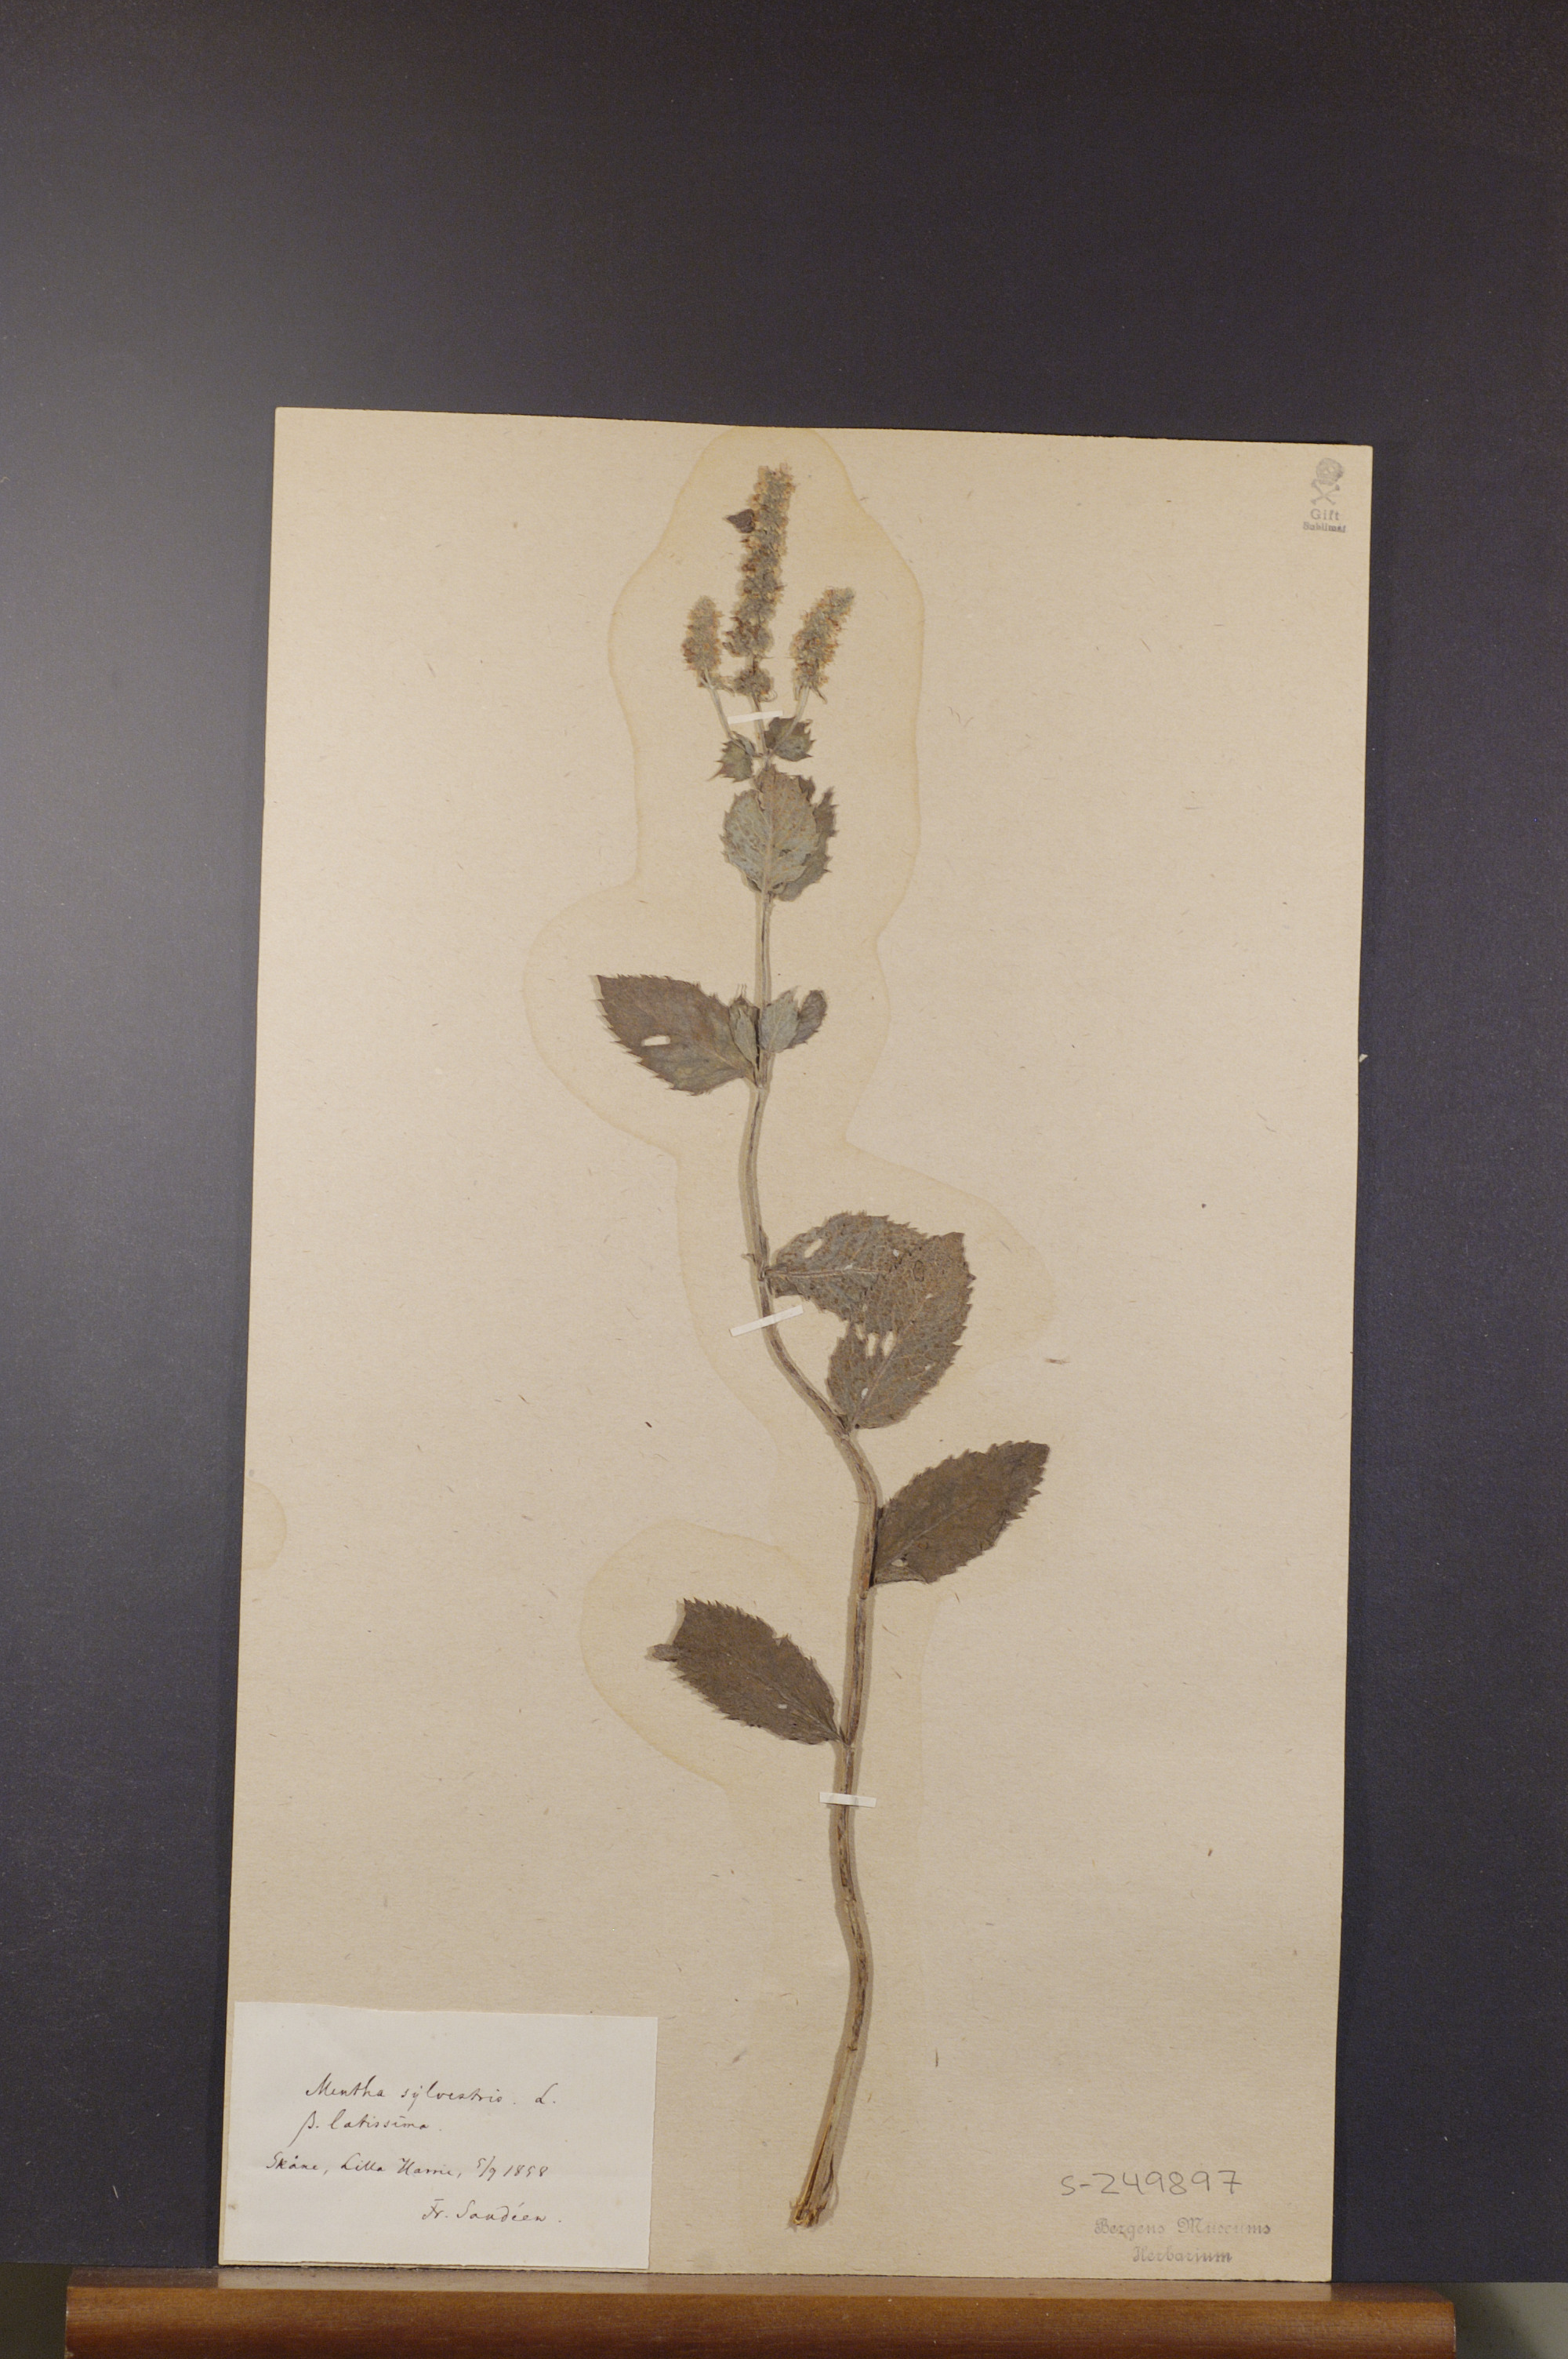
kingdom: Plantae
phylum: Tracheophyta
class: Magnoliopsida
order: Lamiales
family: Lamiaceae
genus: Mentha
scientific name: Mentha longifolia
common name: Horse mint
